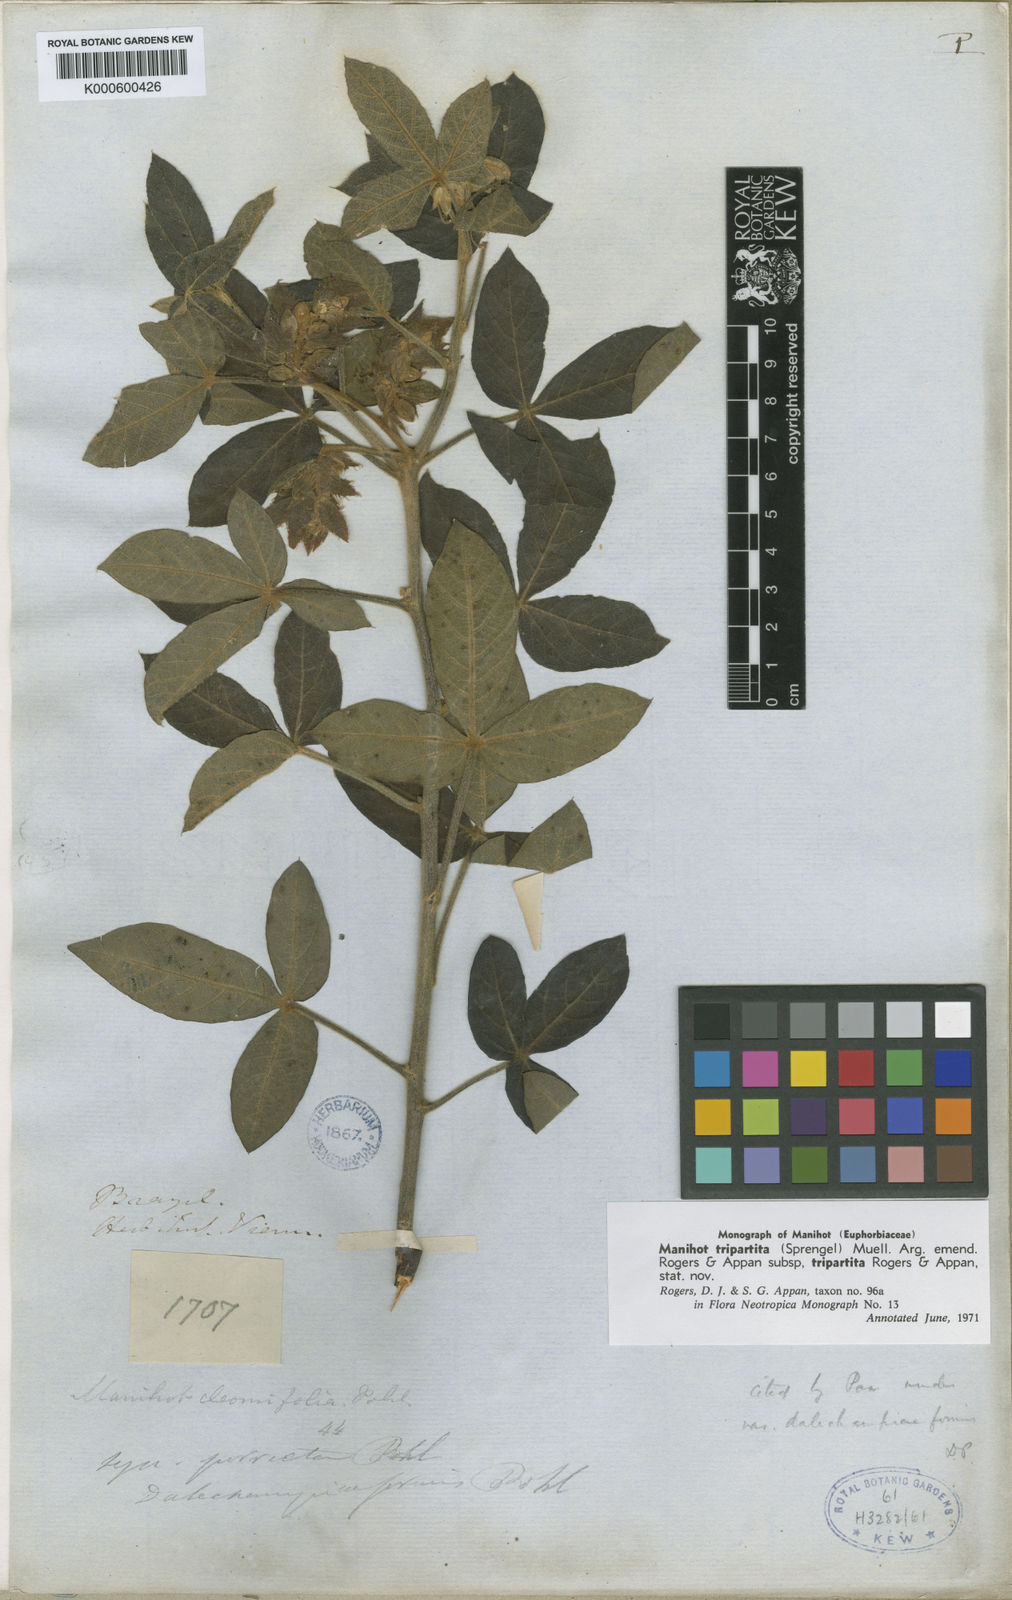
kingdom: Plantae
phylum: Tracheophyta
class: Magnoliopsida
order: Malpighiales
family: Euphorbiaceae
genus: Manihot
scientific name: Manihot
